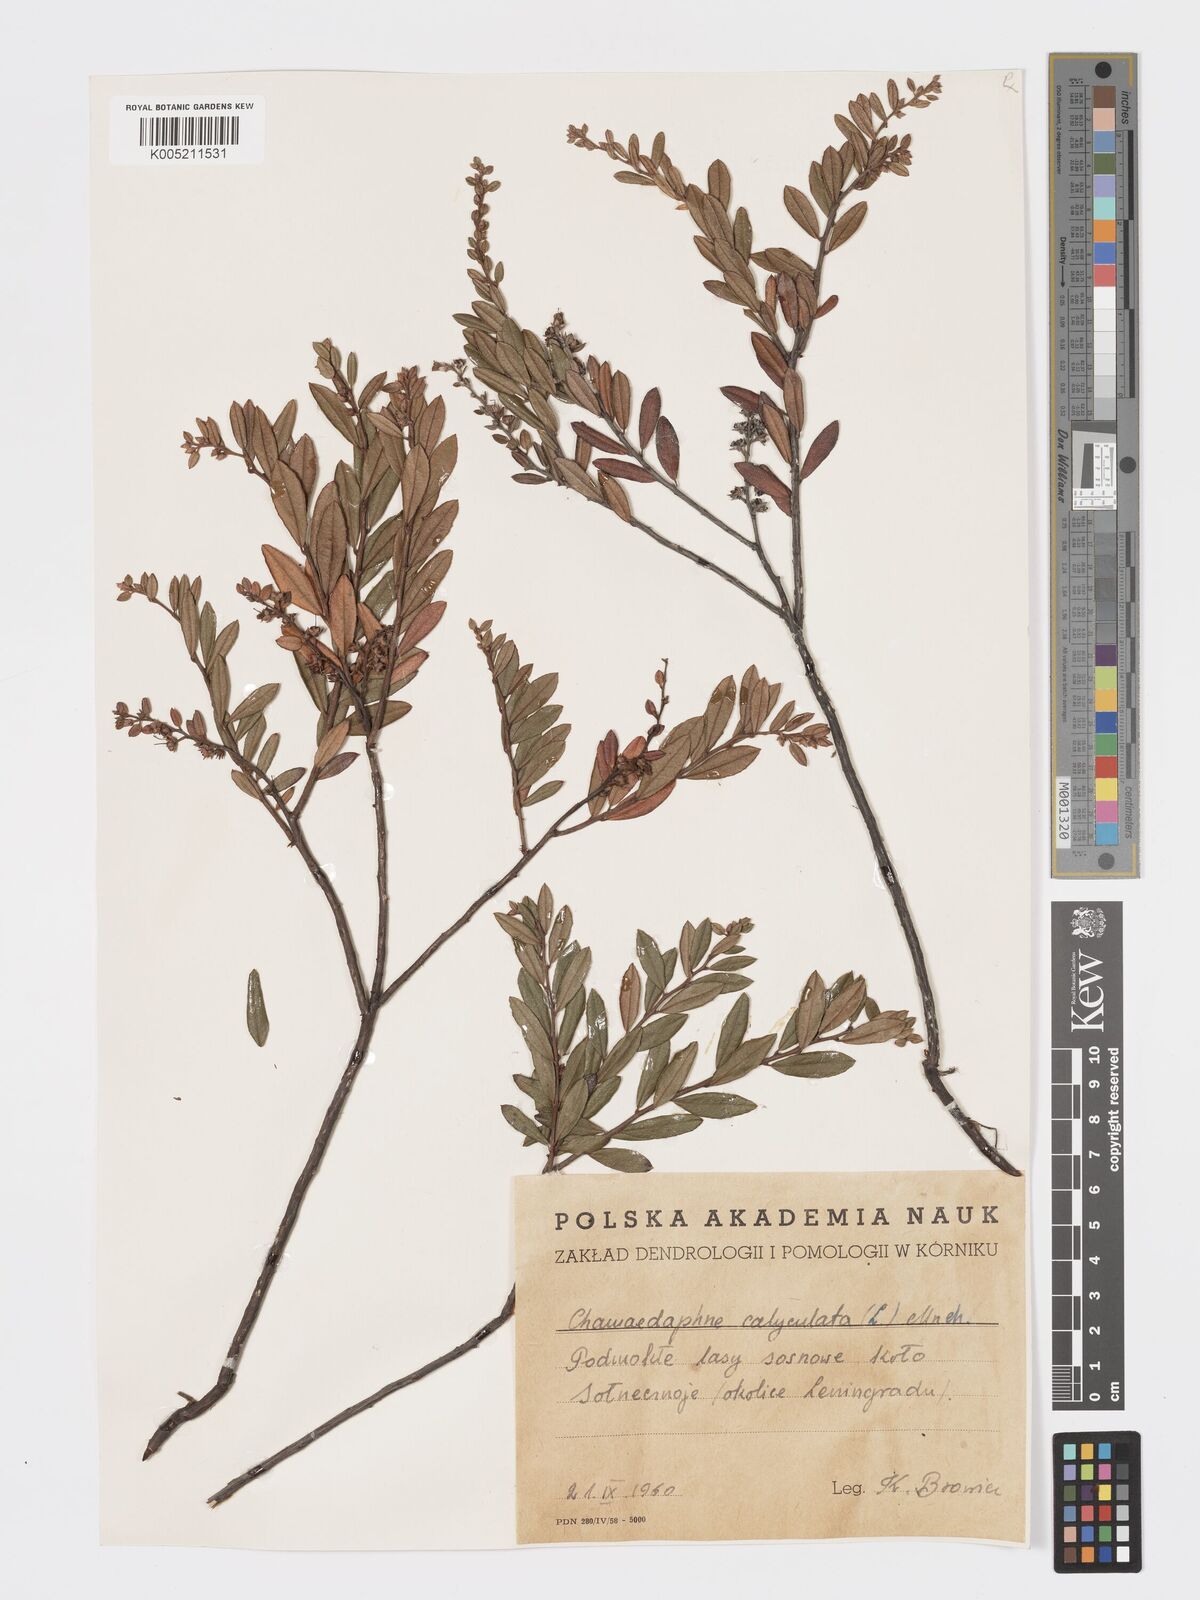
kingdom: Plantae
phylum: Tracheophyta
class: Magnoliopsida
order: Ericales
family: Ericaceae
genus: Chamaedaphne
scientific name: Chamaedaphne calyculata
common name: Leatherleaf
